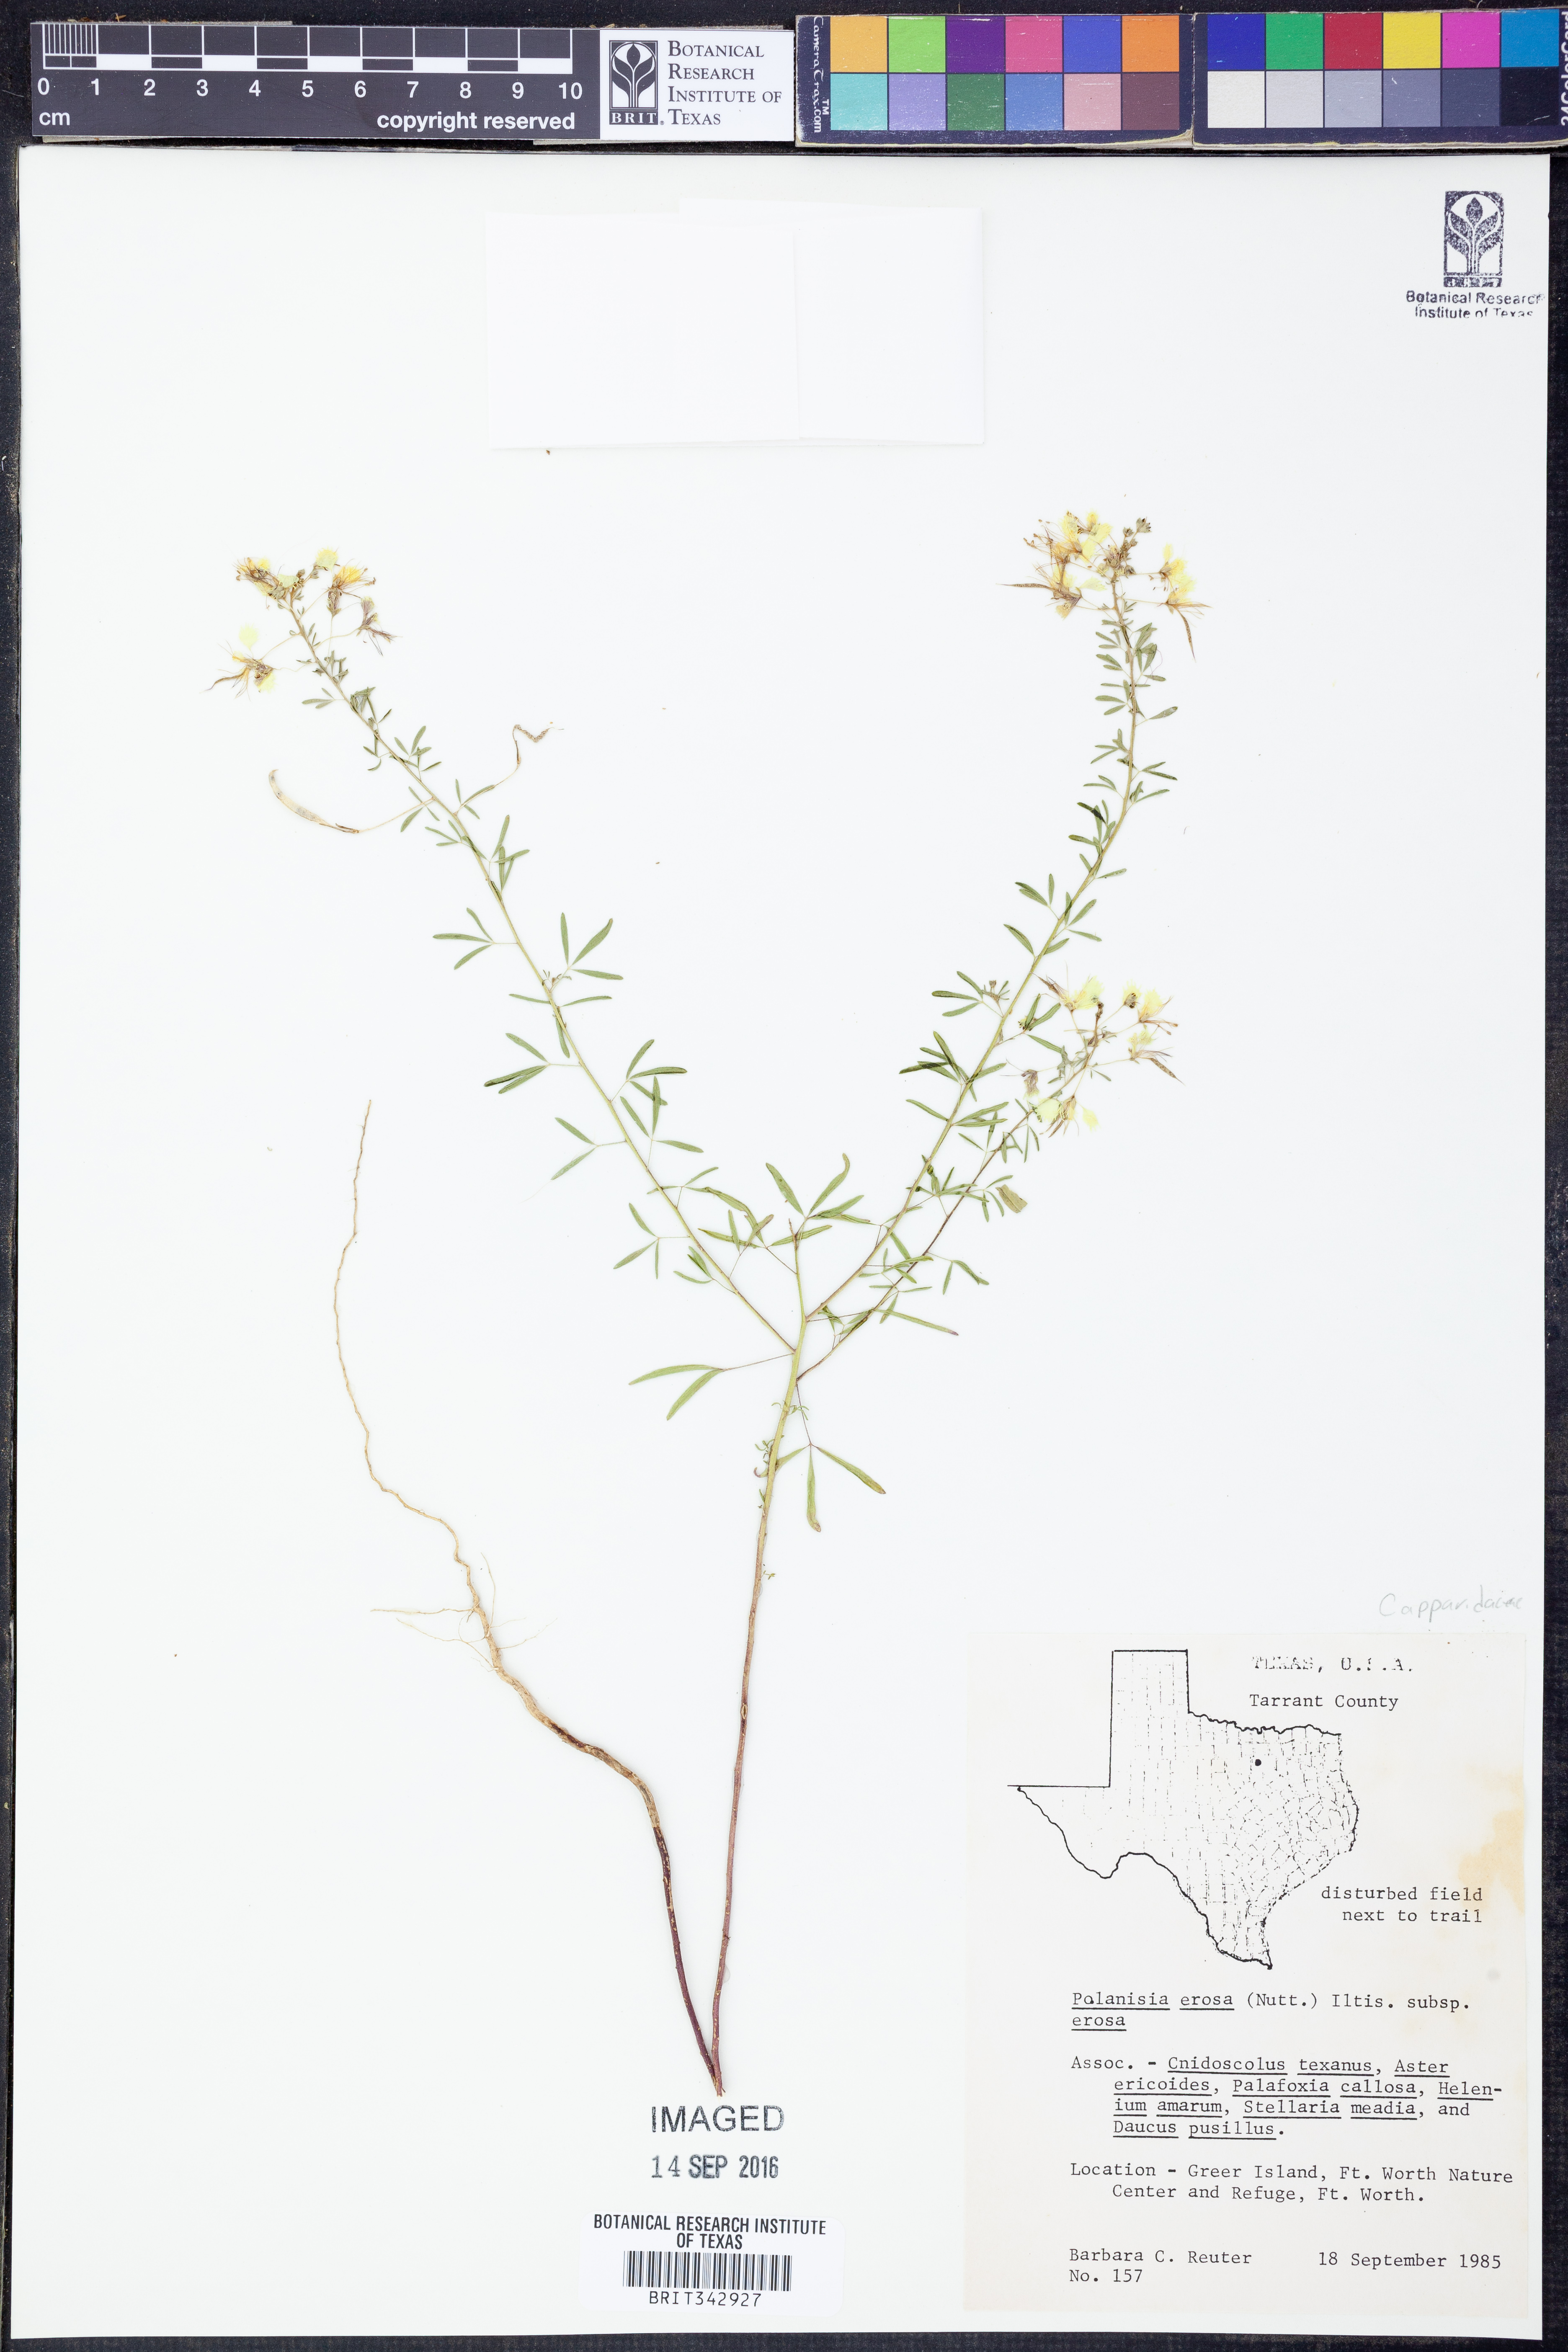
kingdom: Plantae
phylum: Tracheophyta
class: Magnoliopsida
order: Brassicales
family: Cleomaceae
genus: Polanisia
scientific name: Polanisia erosa
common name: Large clammyweed
